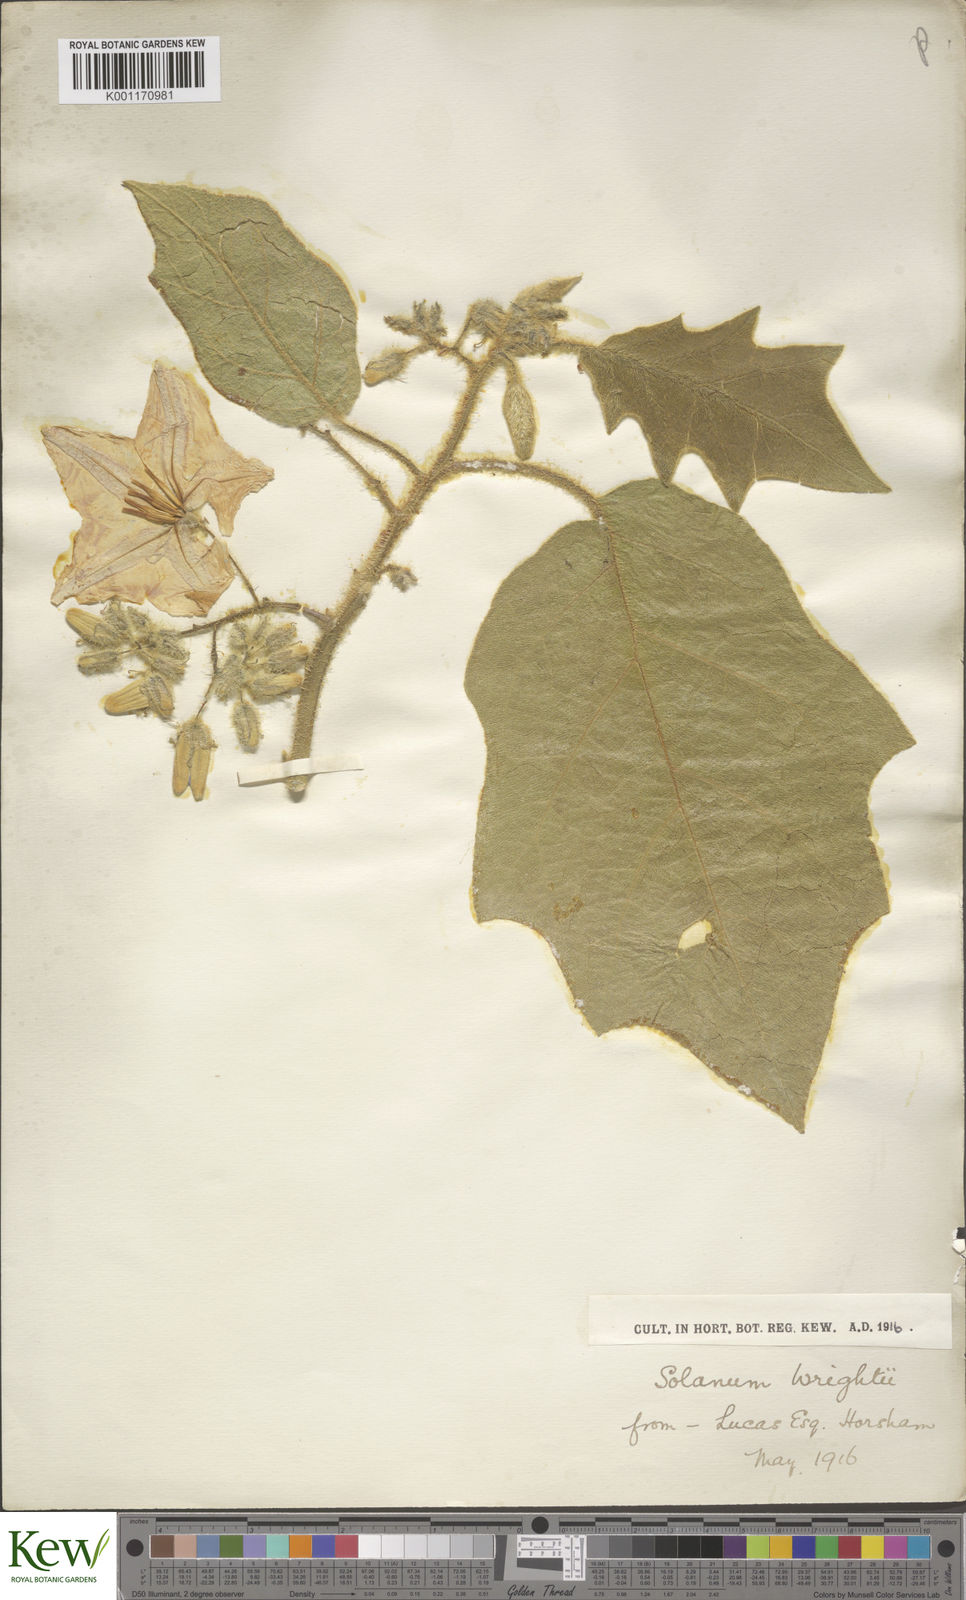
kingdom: Plantae
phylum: Tracheophyta
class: Magnoliopsida
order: Solanales
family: Solanaceae
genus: Solanum
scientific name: Solanum wrightii
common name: Brazilian potato-tree
